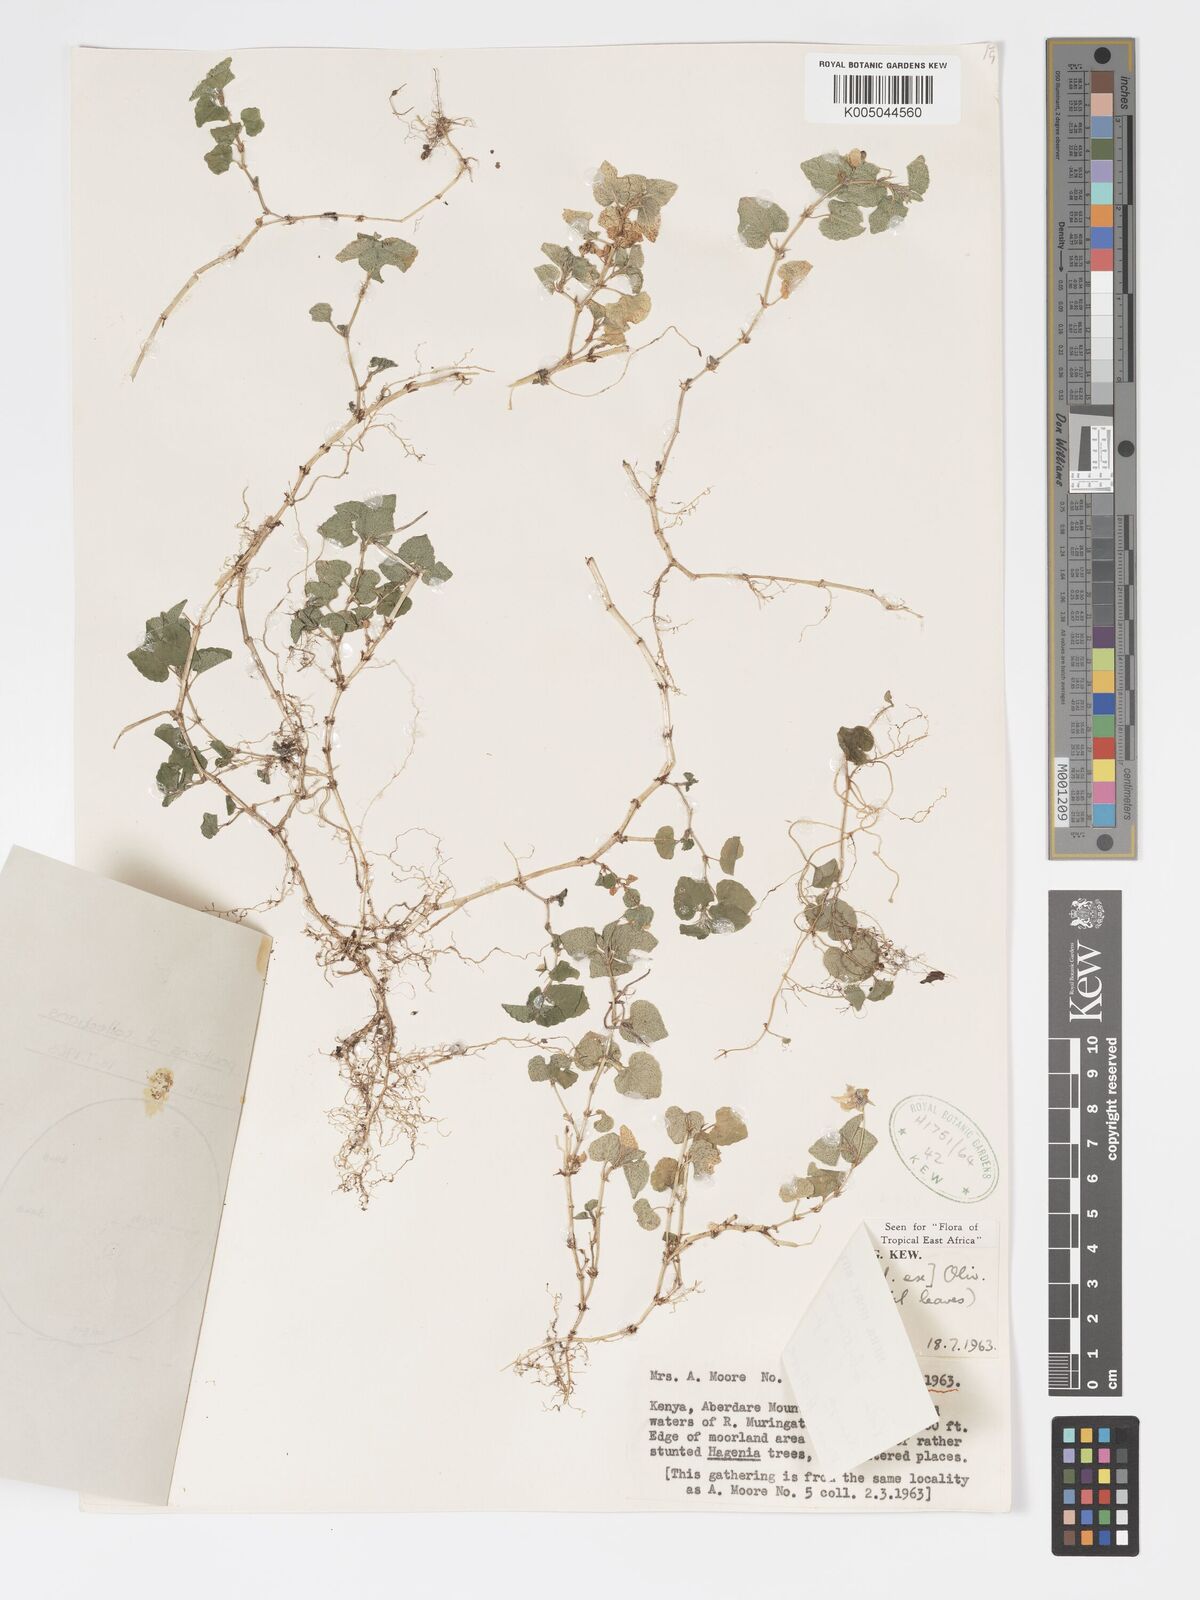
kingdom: Plantae
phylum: Tracheophyta
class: Magnoliopsida
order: Malpighiales
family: Violaceae
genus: Viola
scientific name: Viola abyssinica
